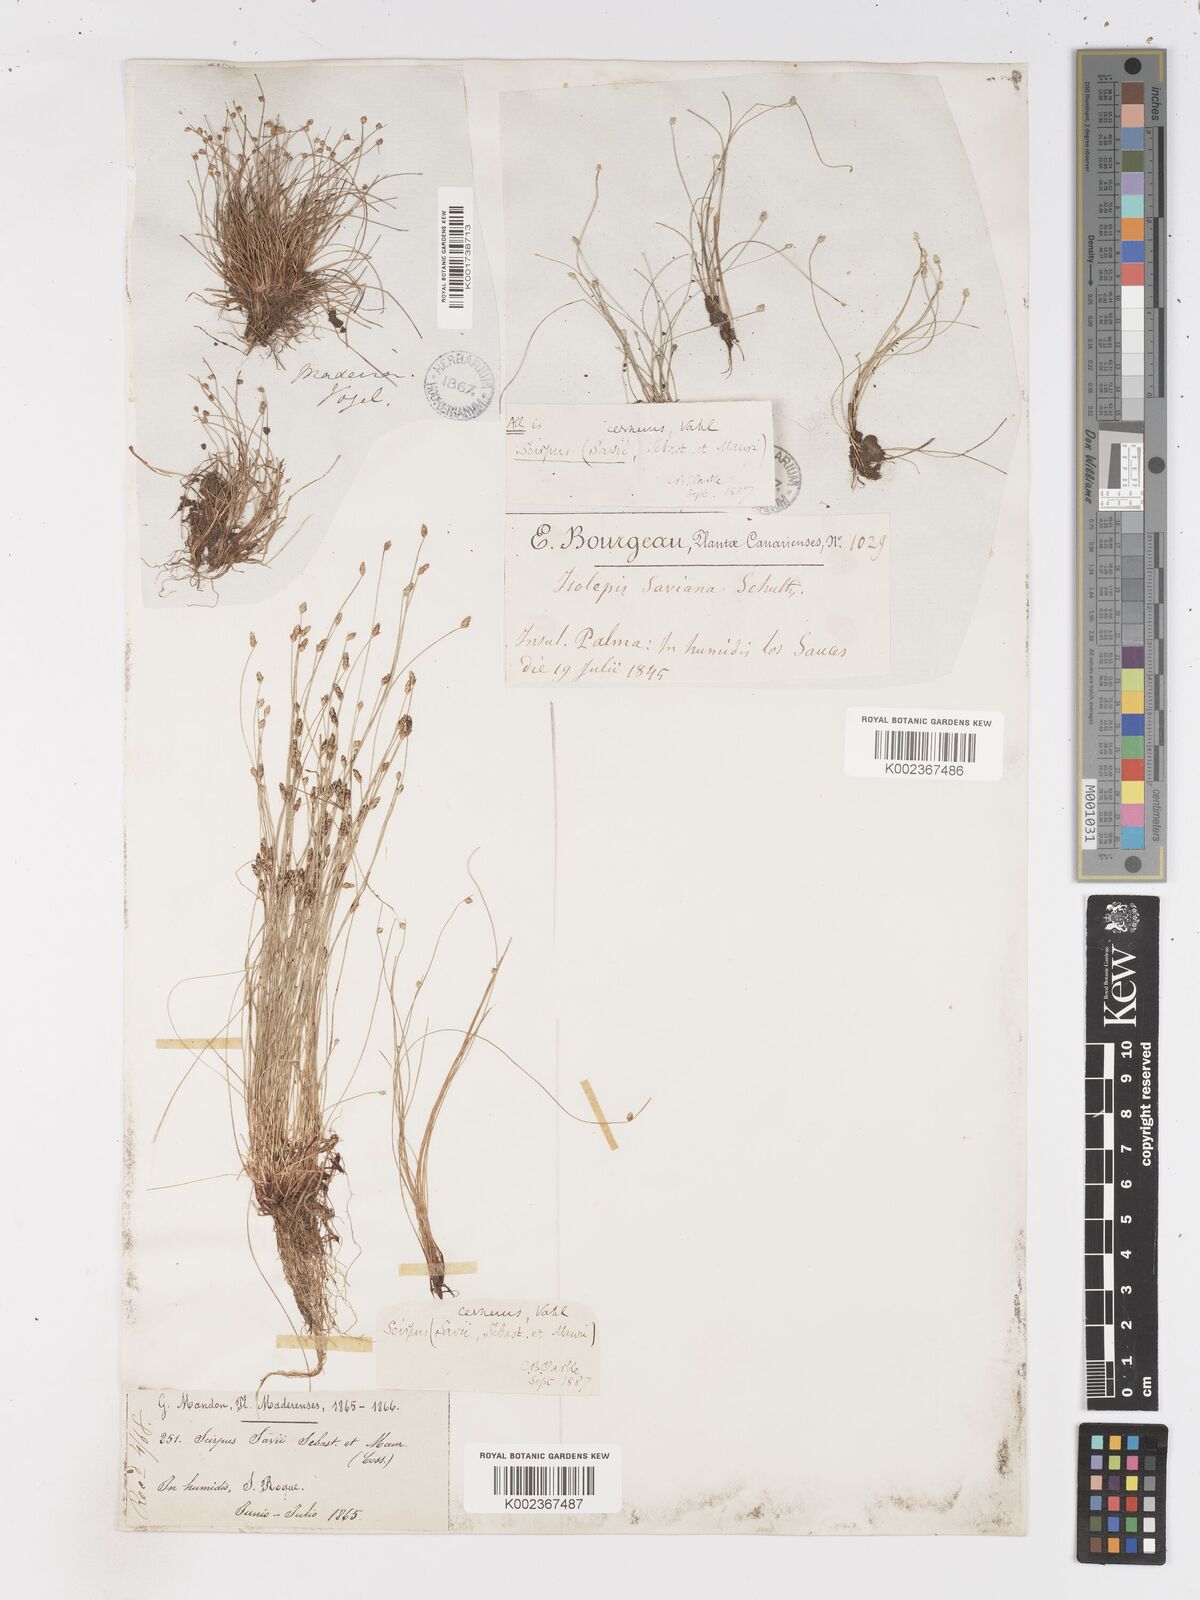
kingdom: Plantae
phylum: Tracheophyta
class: Liliopsida
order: Poales
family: Cyperaceae
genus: Isolepis
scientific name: Isolepis cernua
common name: Slender club-rush
